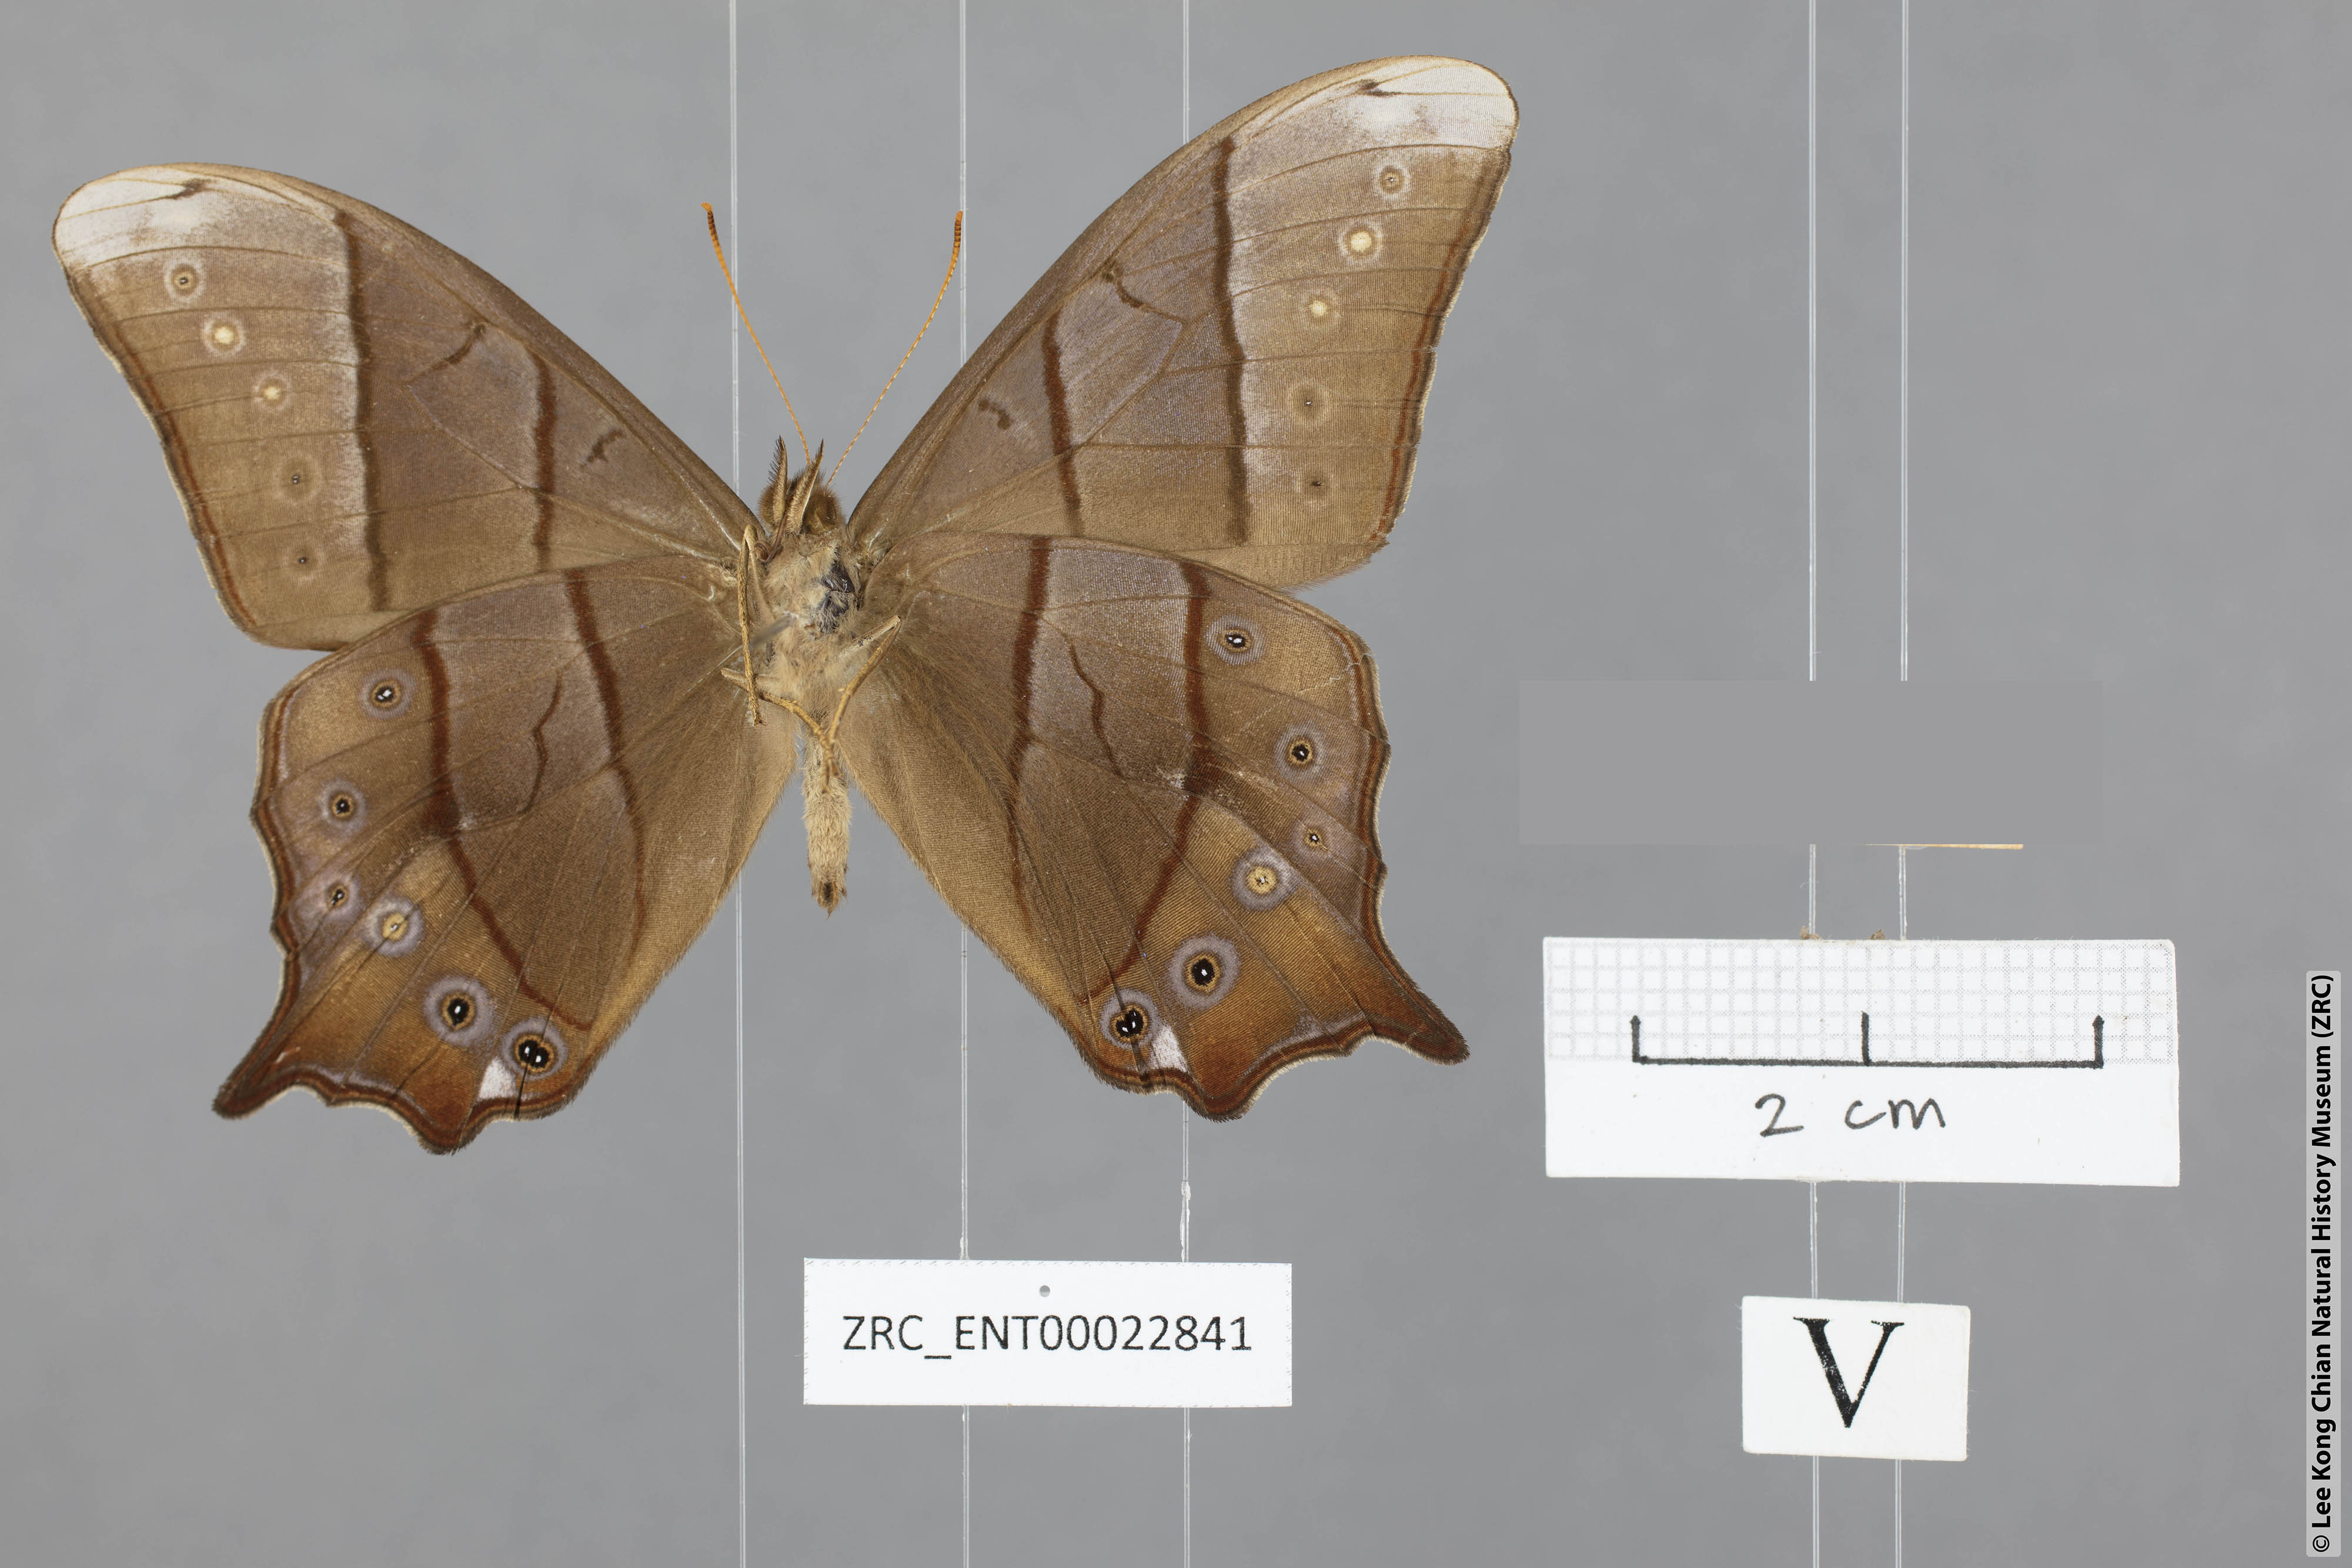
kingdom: Animalia
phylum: Arthropoda
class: Insecta
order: Lepidoptera
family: Nymphalidae
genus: Lethe
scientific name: Lethe sinorix
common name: Tailed red forester
